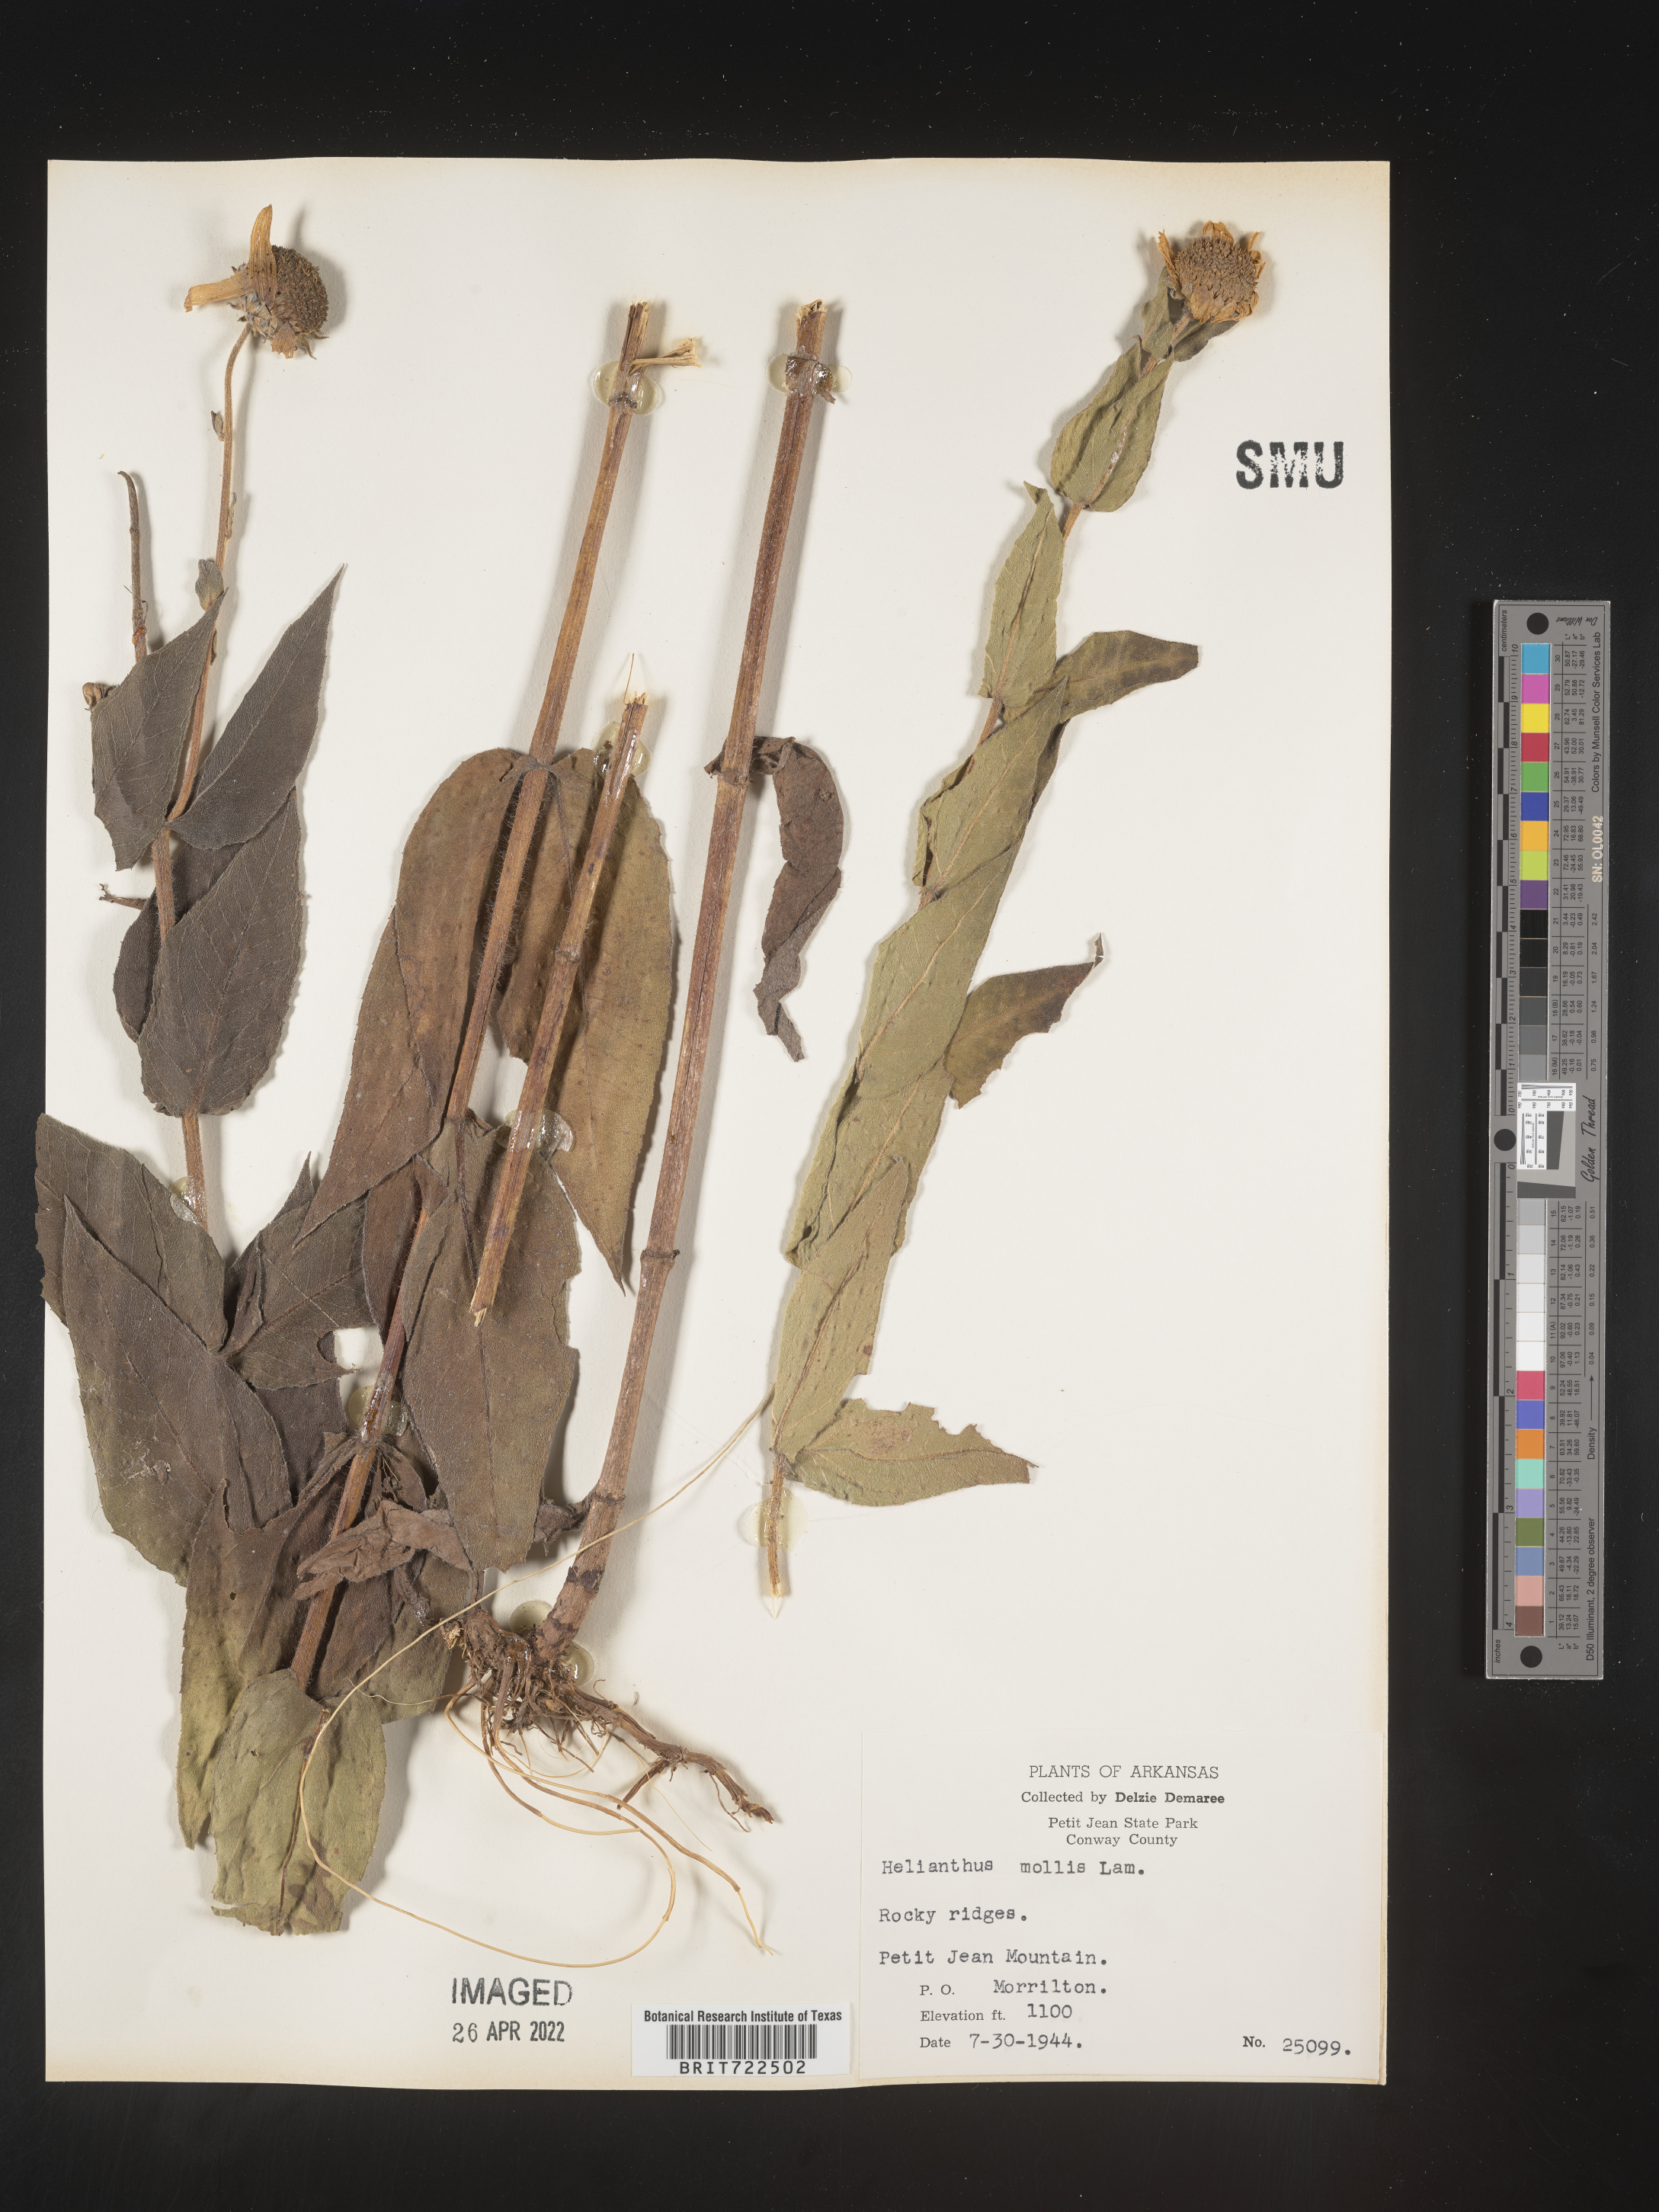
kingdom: Plantae
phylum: Tracheophyta
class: Magnoliopsida
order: Asterales
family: Asteraceae
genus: Helianthus
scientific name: Helianthus mollis
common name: Ashy sunflower
